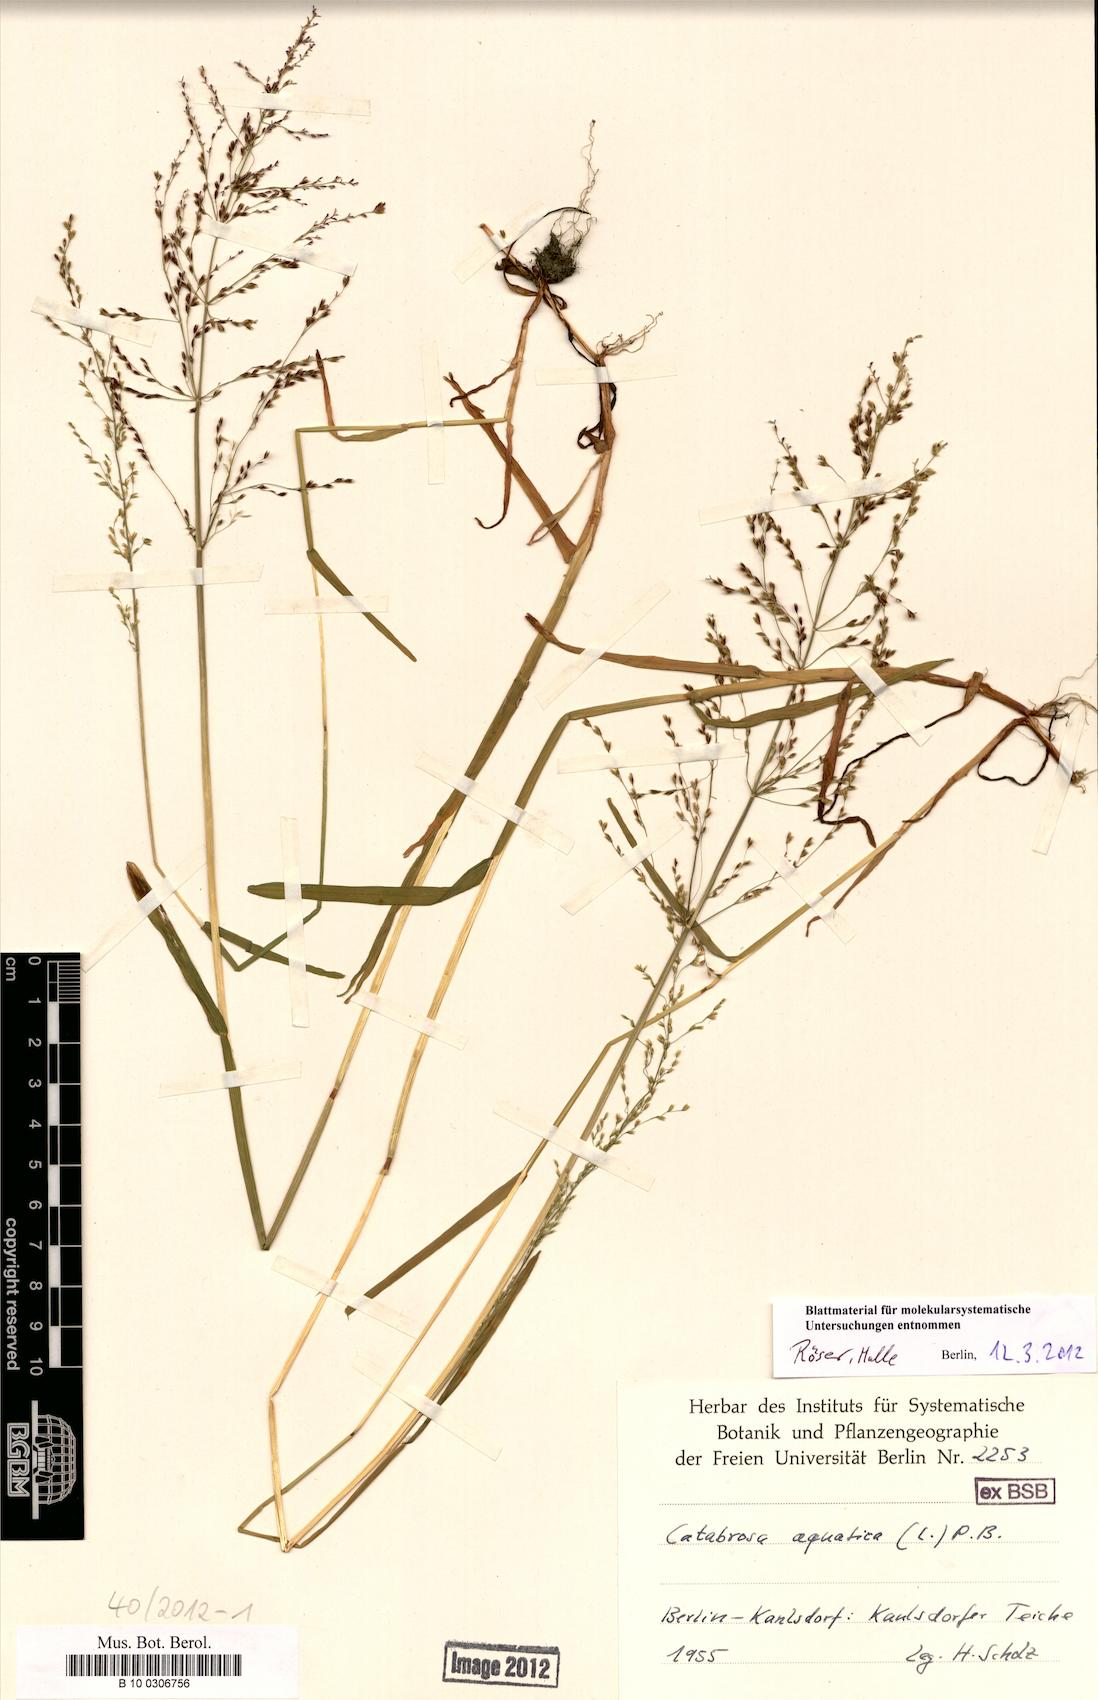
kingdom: Plantae
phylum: Tracheophyta
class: Liliopsida
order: Poales
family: Poaceae
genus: Catabrosa
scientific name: Catabrosa aquatica
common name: Whorl-grass
